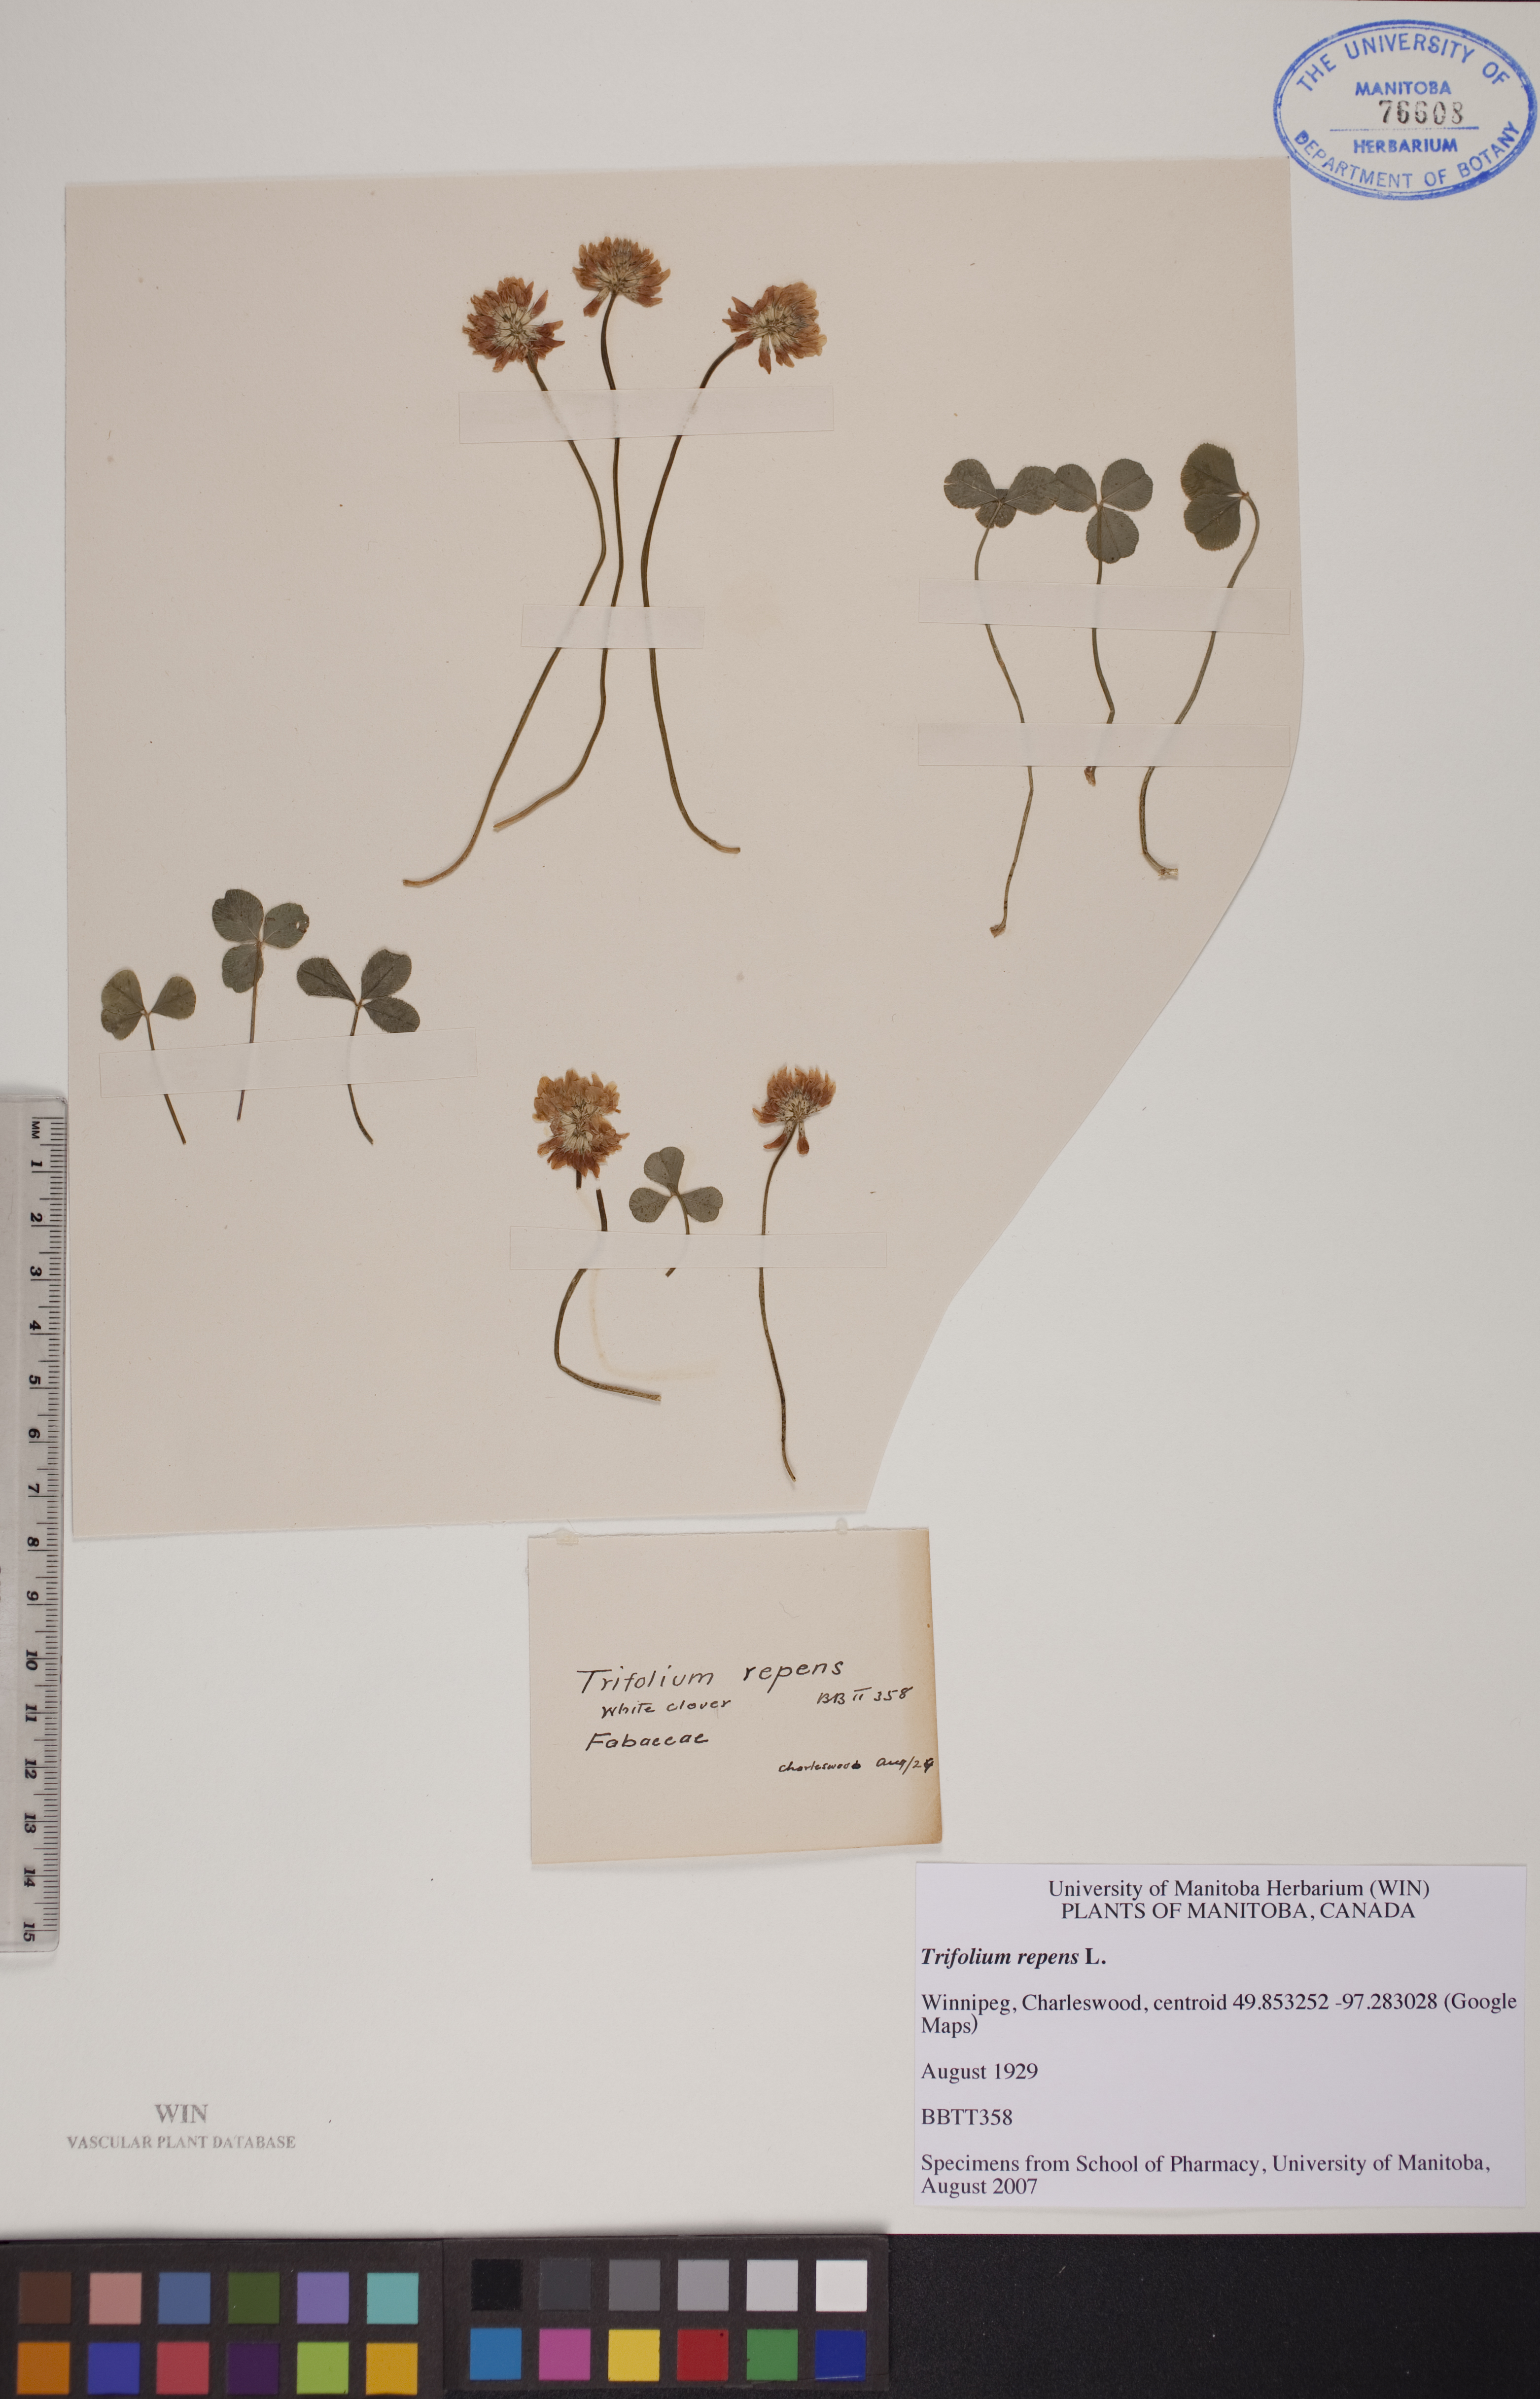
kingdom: Plantae
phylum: Tracheophyta
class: Magnoliopsida
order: Fabales
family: Fabaceae
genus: Trifolium
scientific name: Trifolium repens
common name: White clover
